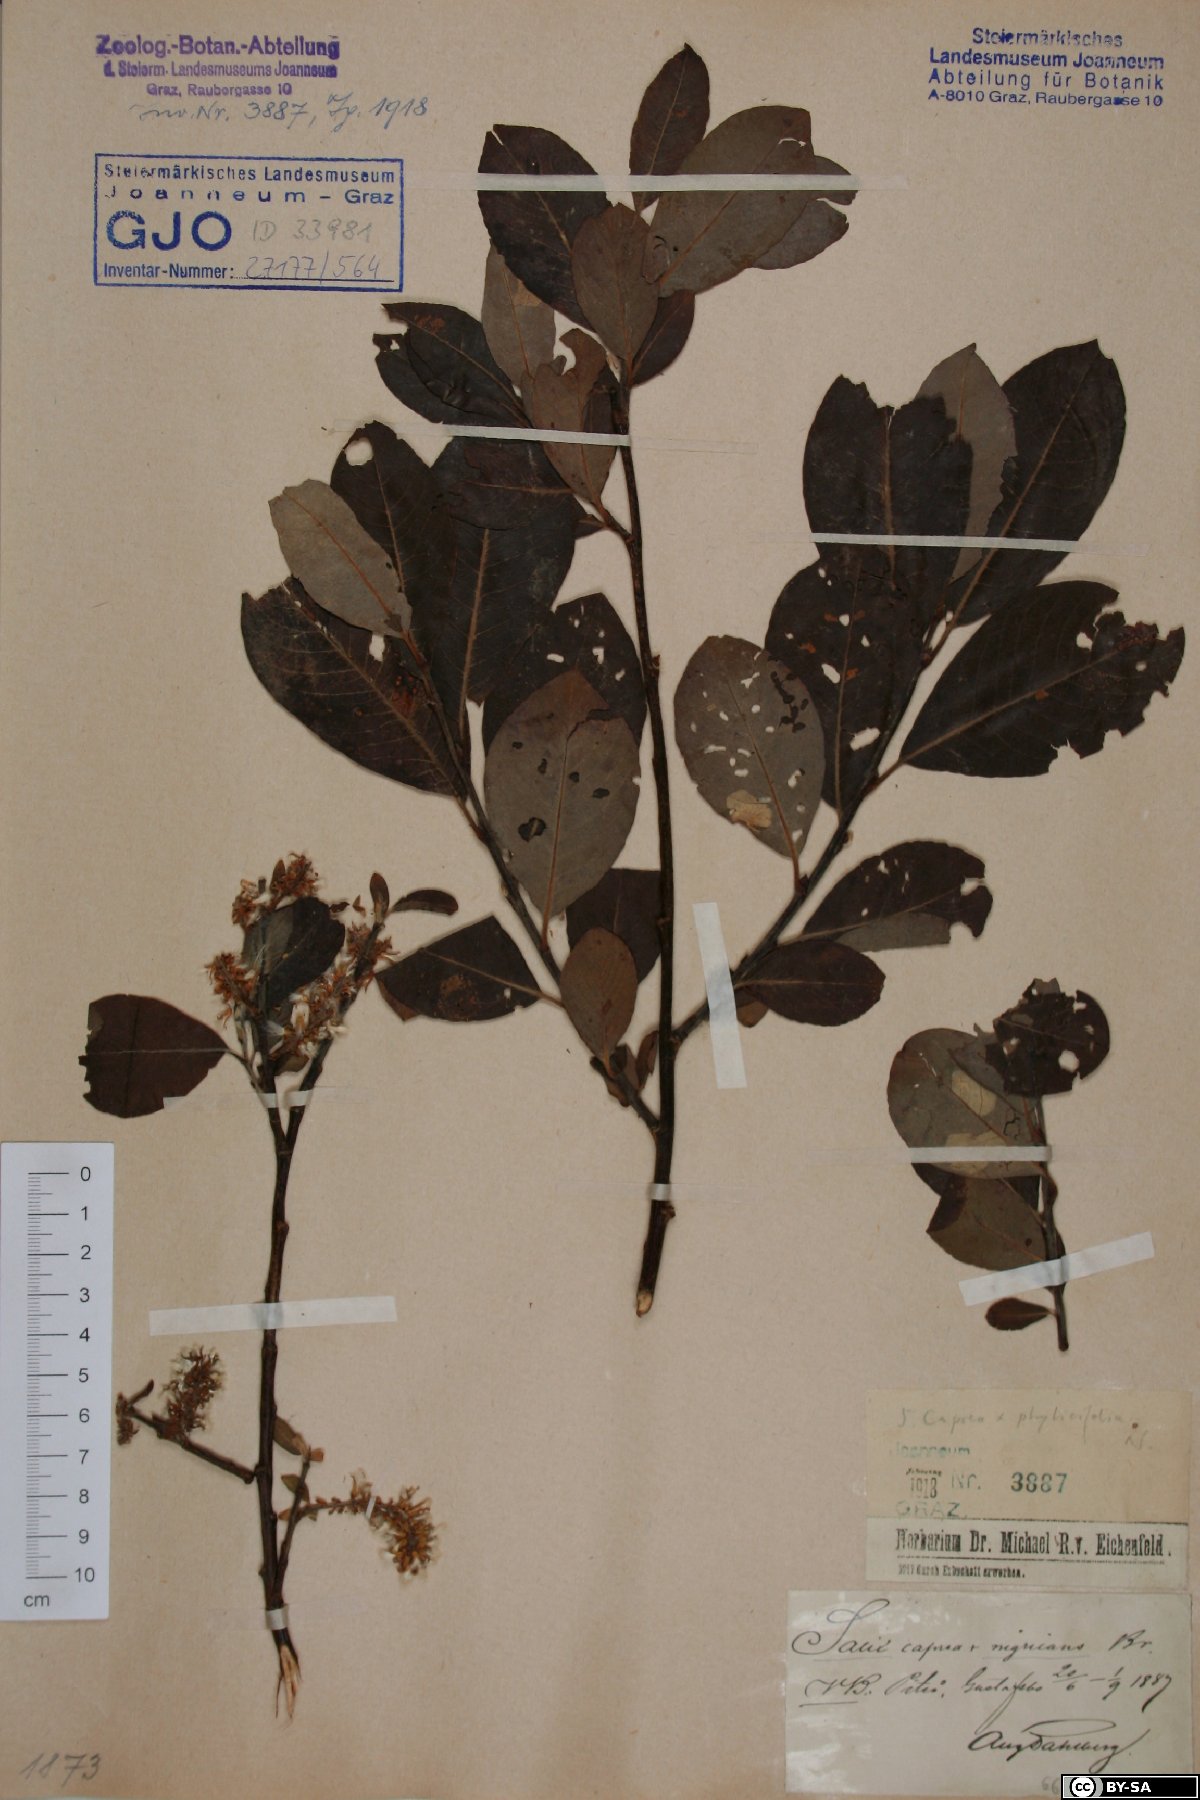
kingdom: Plantae
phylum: Tracheophyta
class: Magnoliopsida
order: Malpighiales
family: Salicaceae
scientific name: Salicaceae
